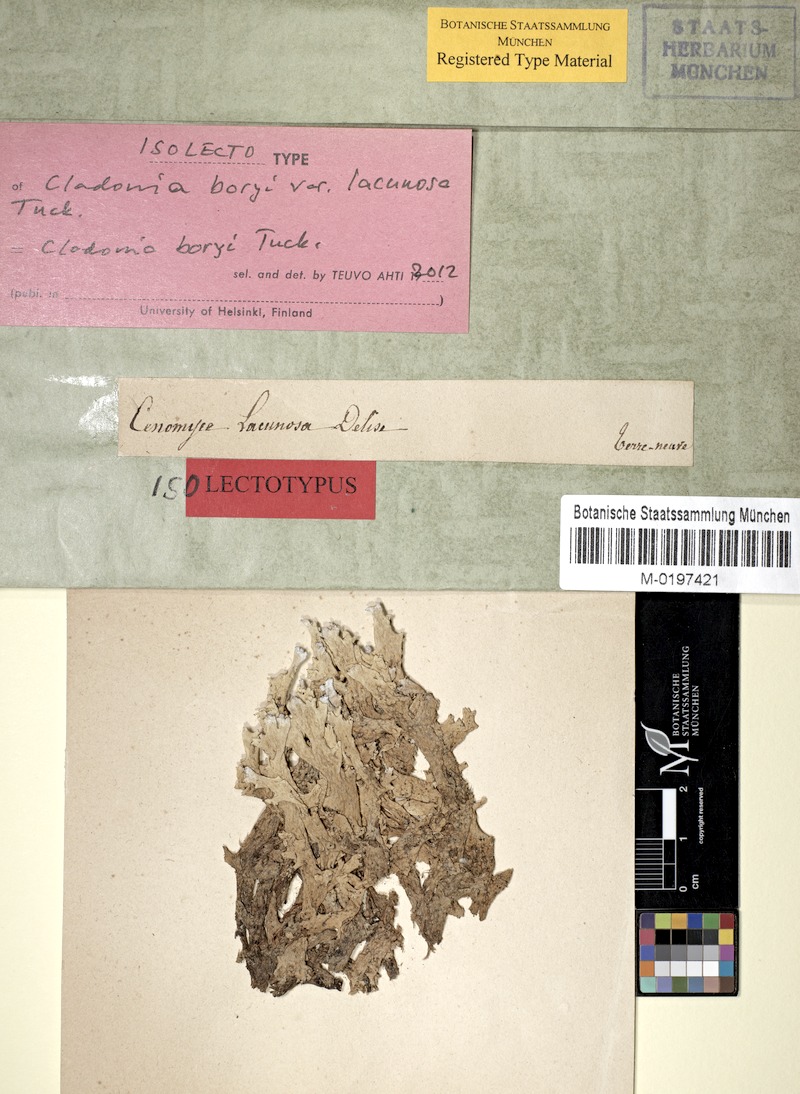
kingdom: Fungi
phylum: Ascomycota
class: Lecanoromycetes
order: Lecanorales
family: Cladoniaceae
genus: Cladonia
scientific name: Cladonia boryi
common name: Fishnet cladonia
